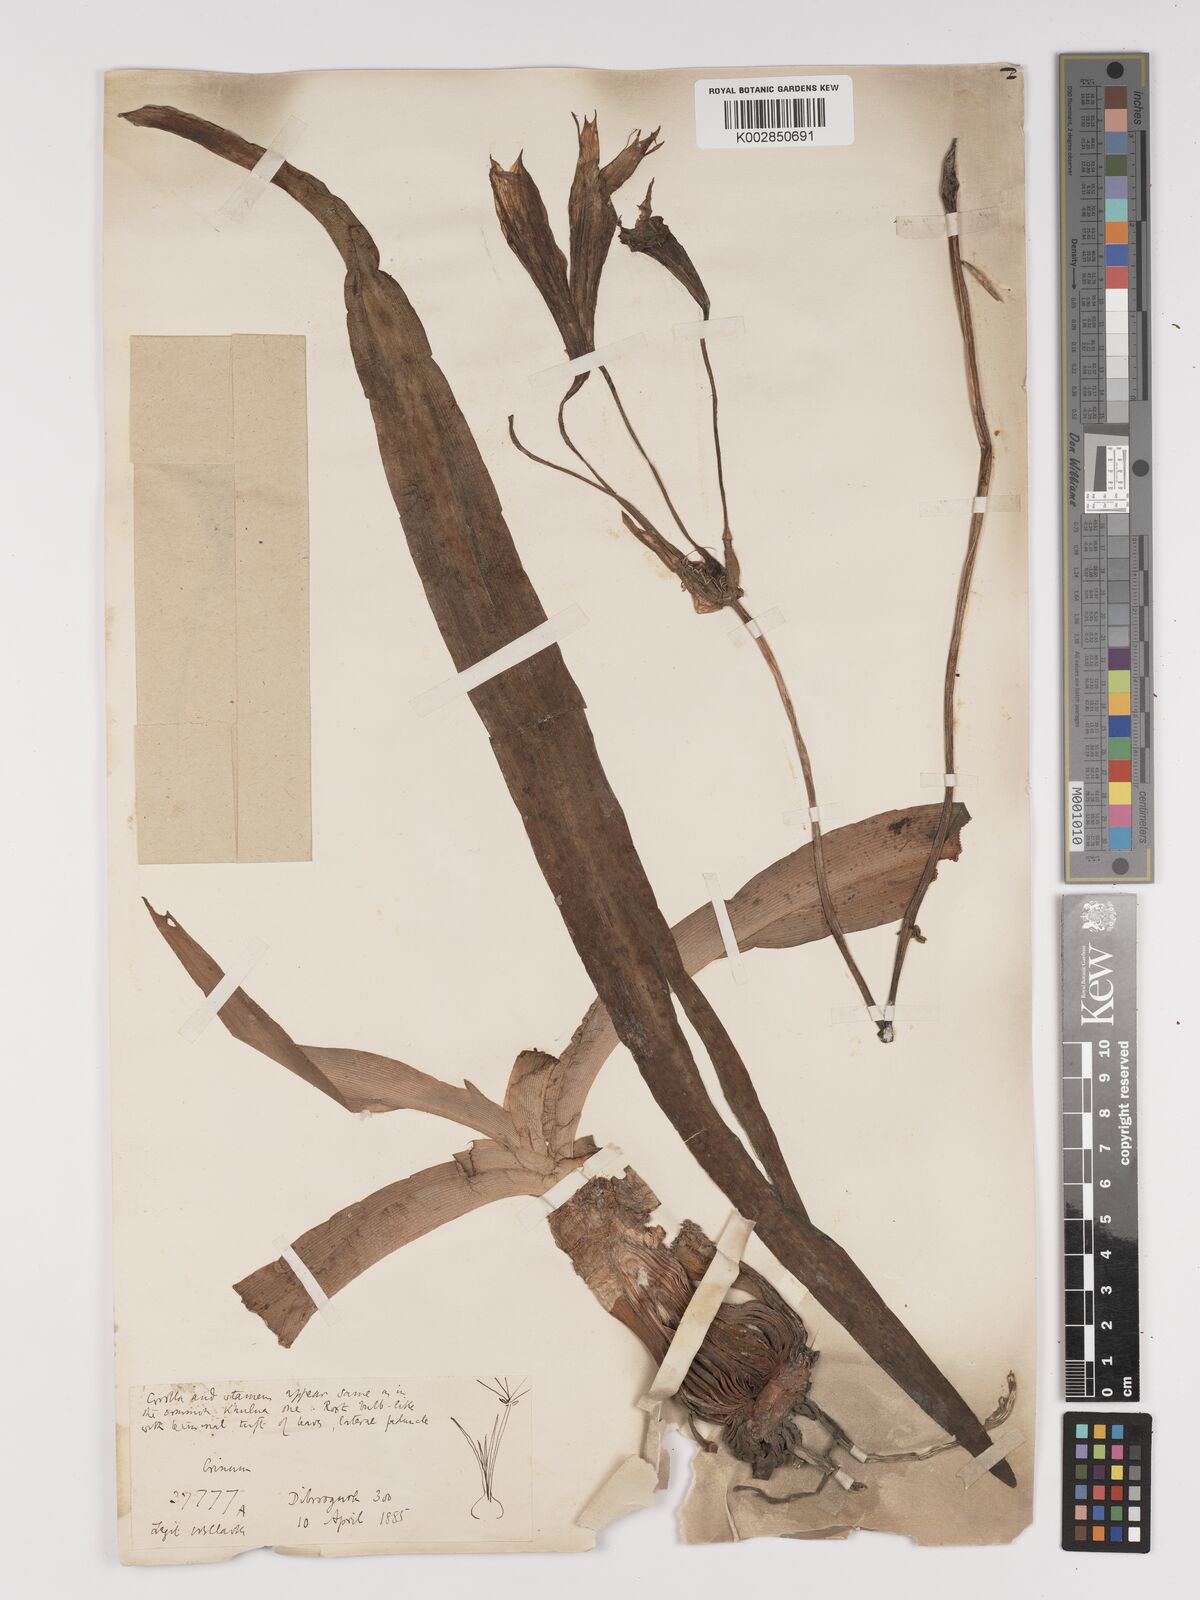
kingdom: Plantae
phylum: Tracheophyta
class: Liliopsida
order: Asparagales
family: Amaryllidaceae
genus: Crinum
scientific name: Crinum zeylanicum
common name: Ceylon swamplily
